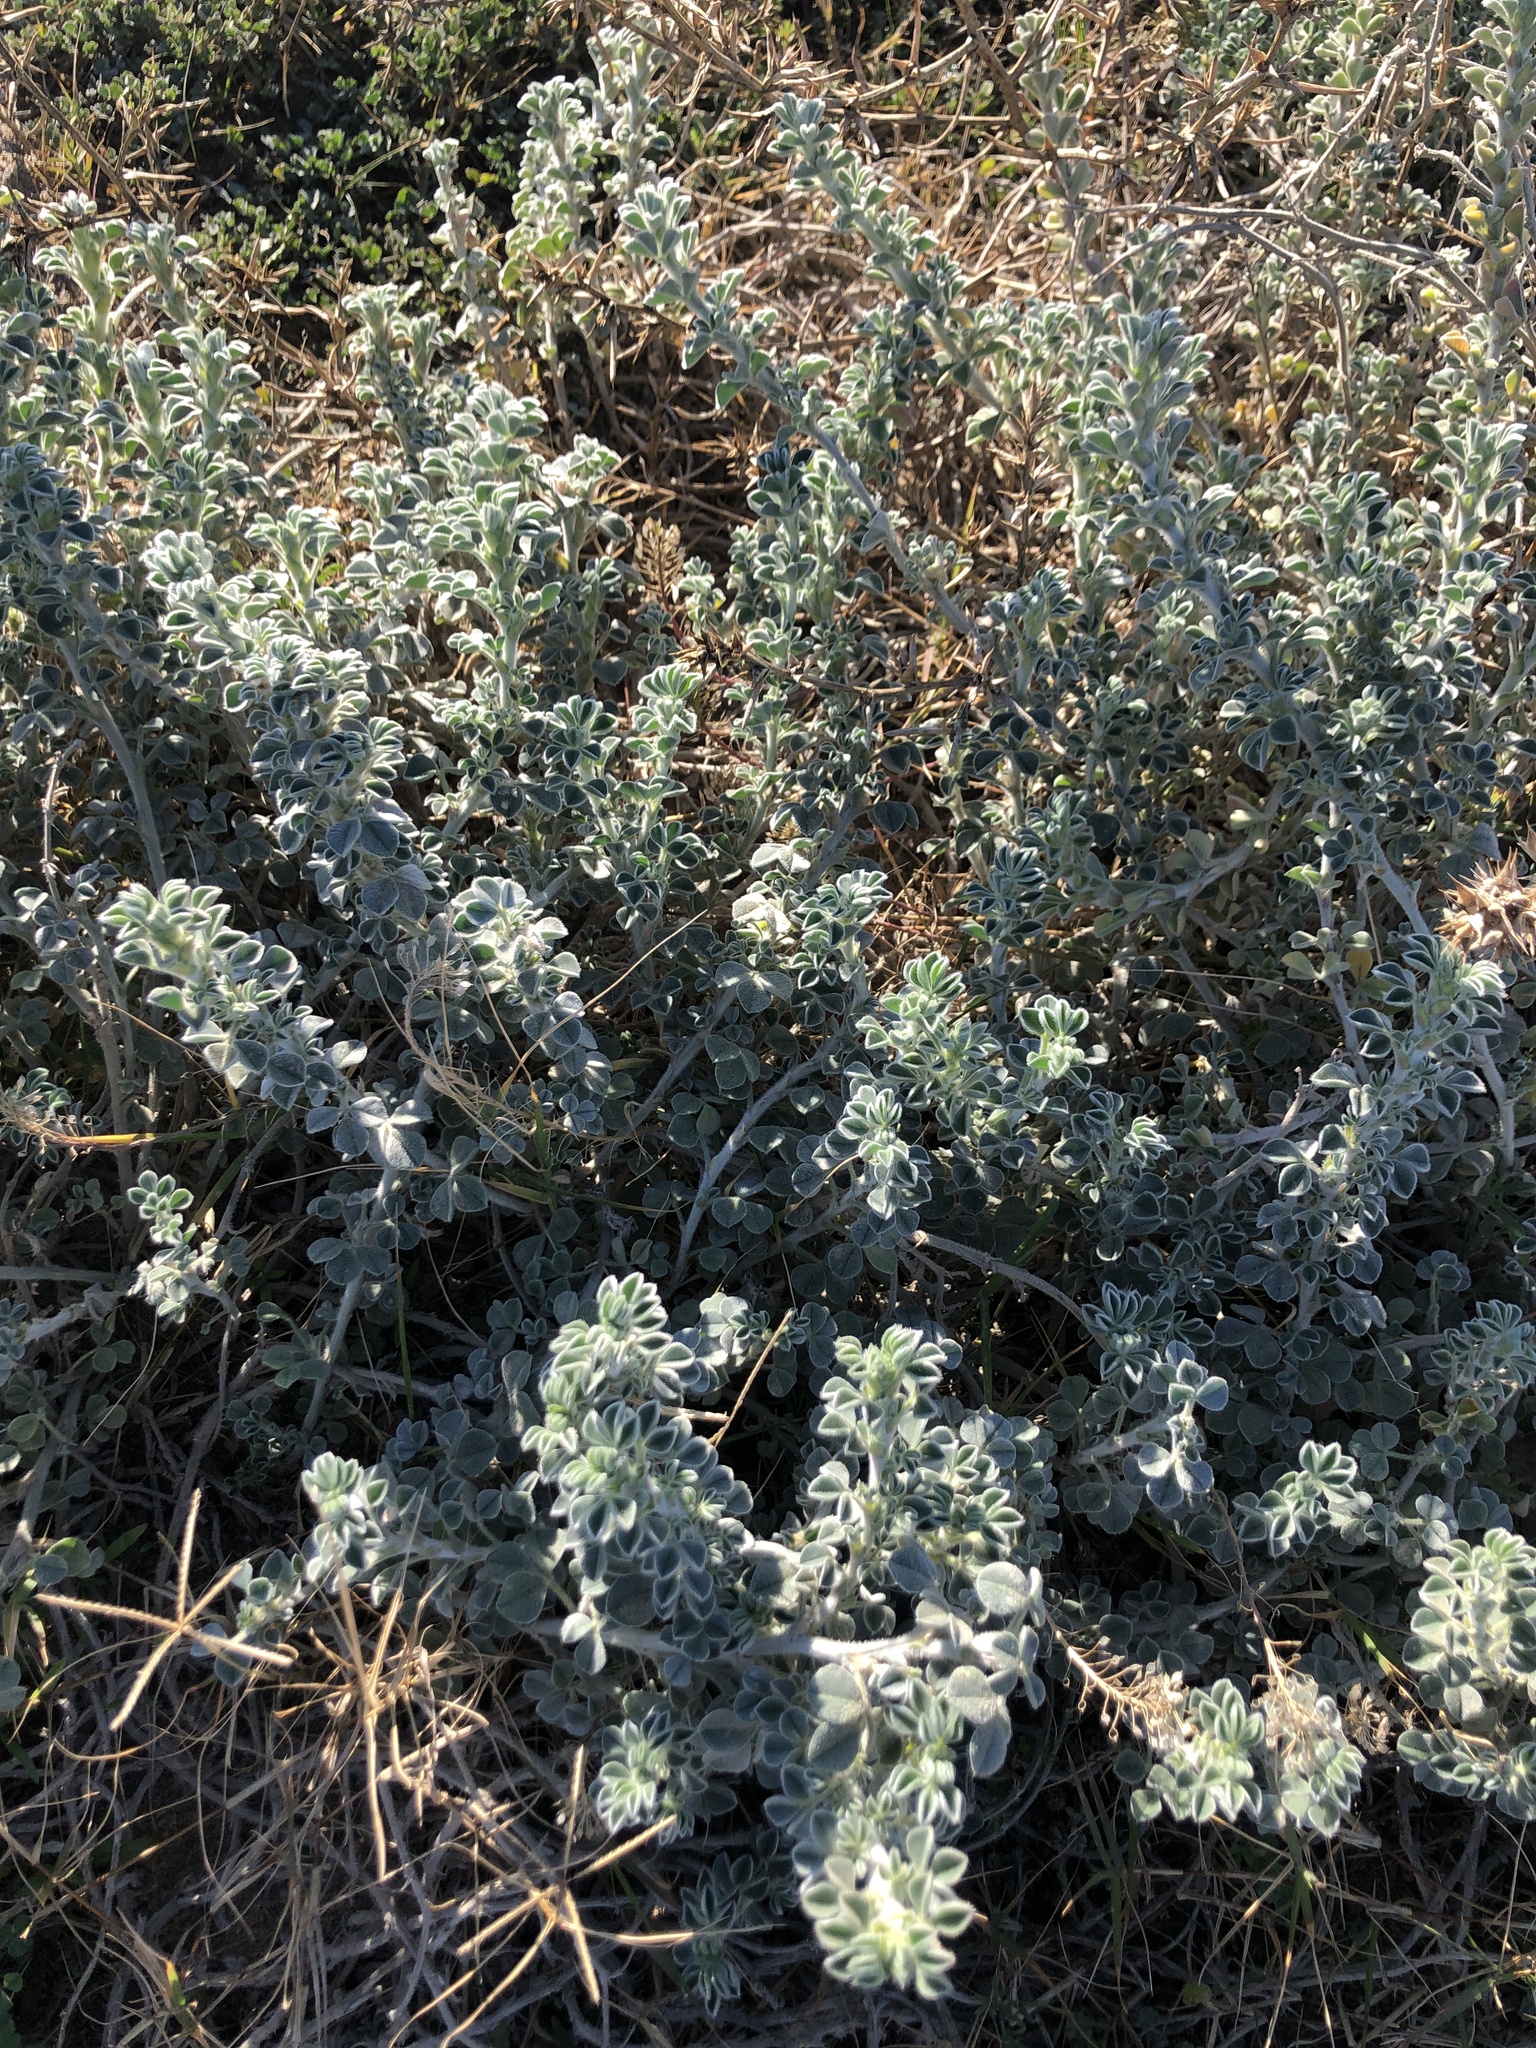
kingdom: Plantae
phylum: Tracheophyta
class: Magnoliopsida
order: Fabales
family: Fabaceae
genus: Medicago
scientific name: Medicago marina
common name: Sea medick
